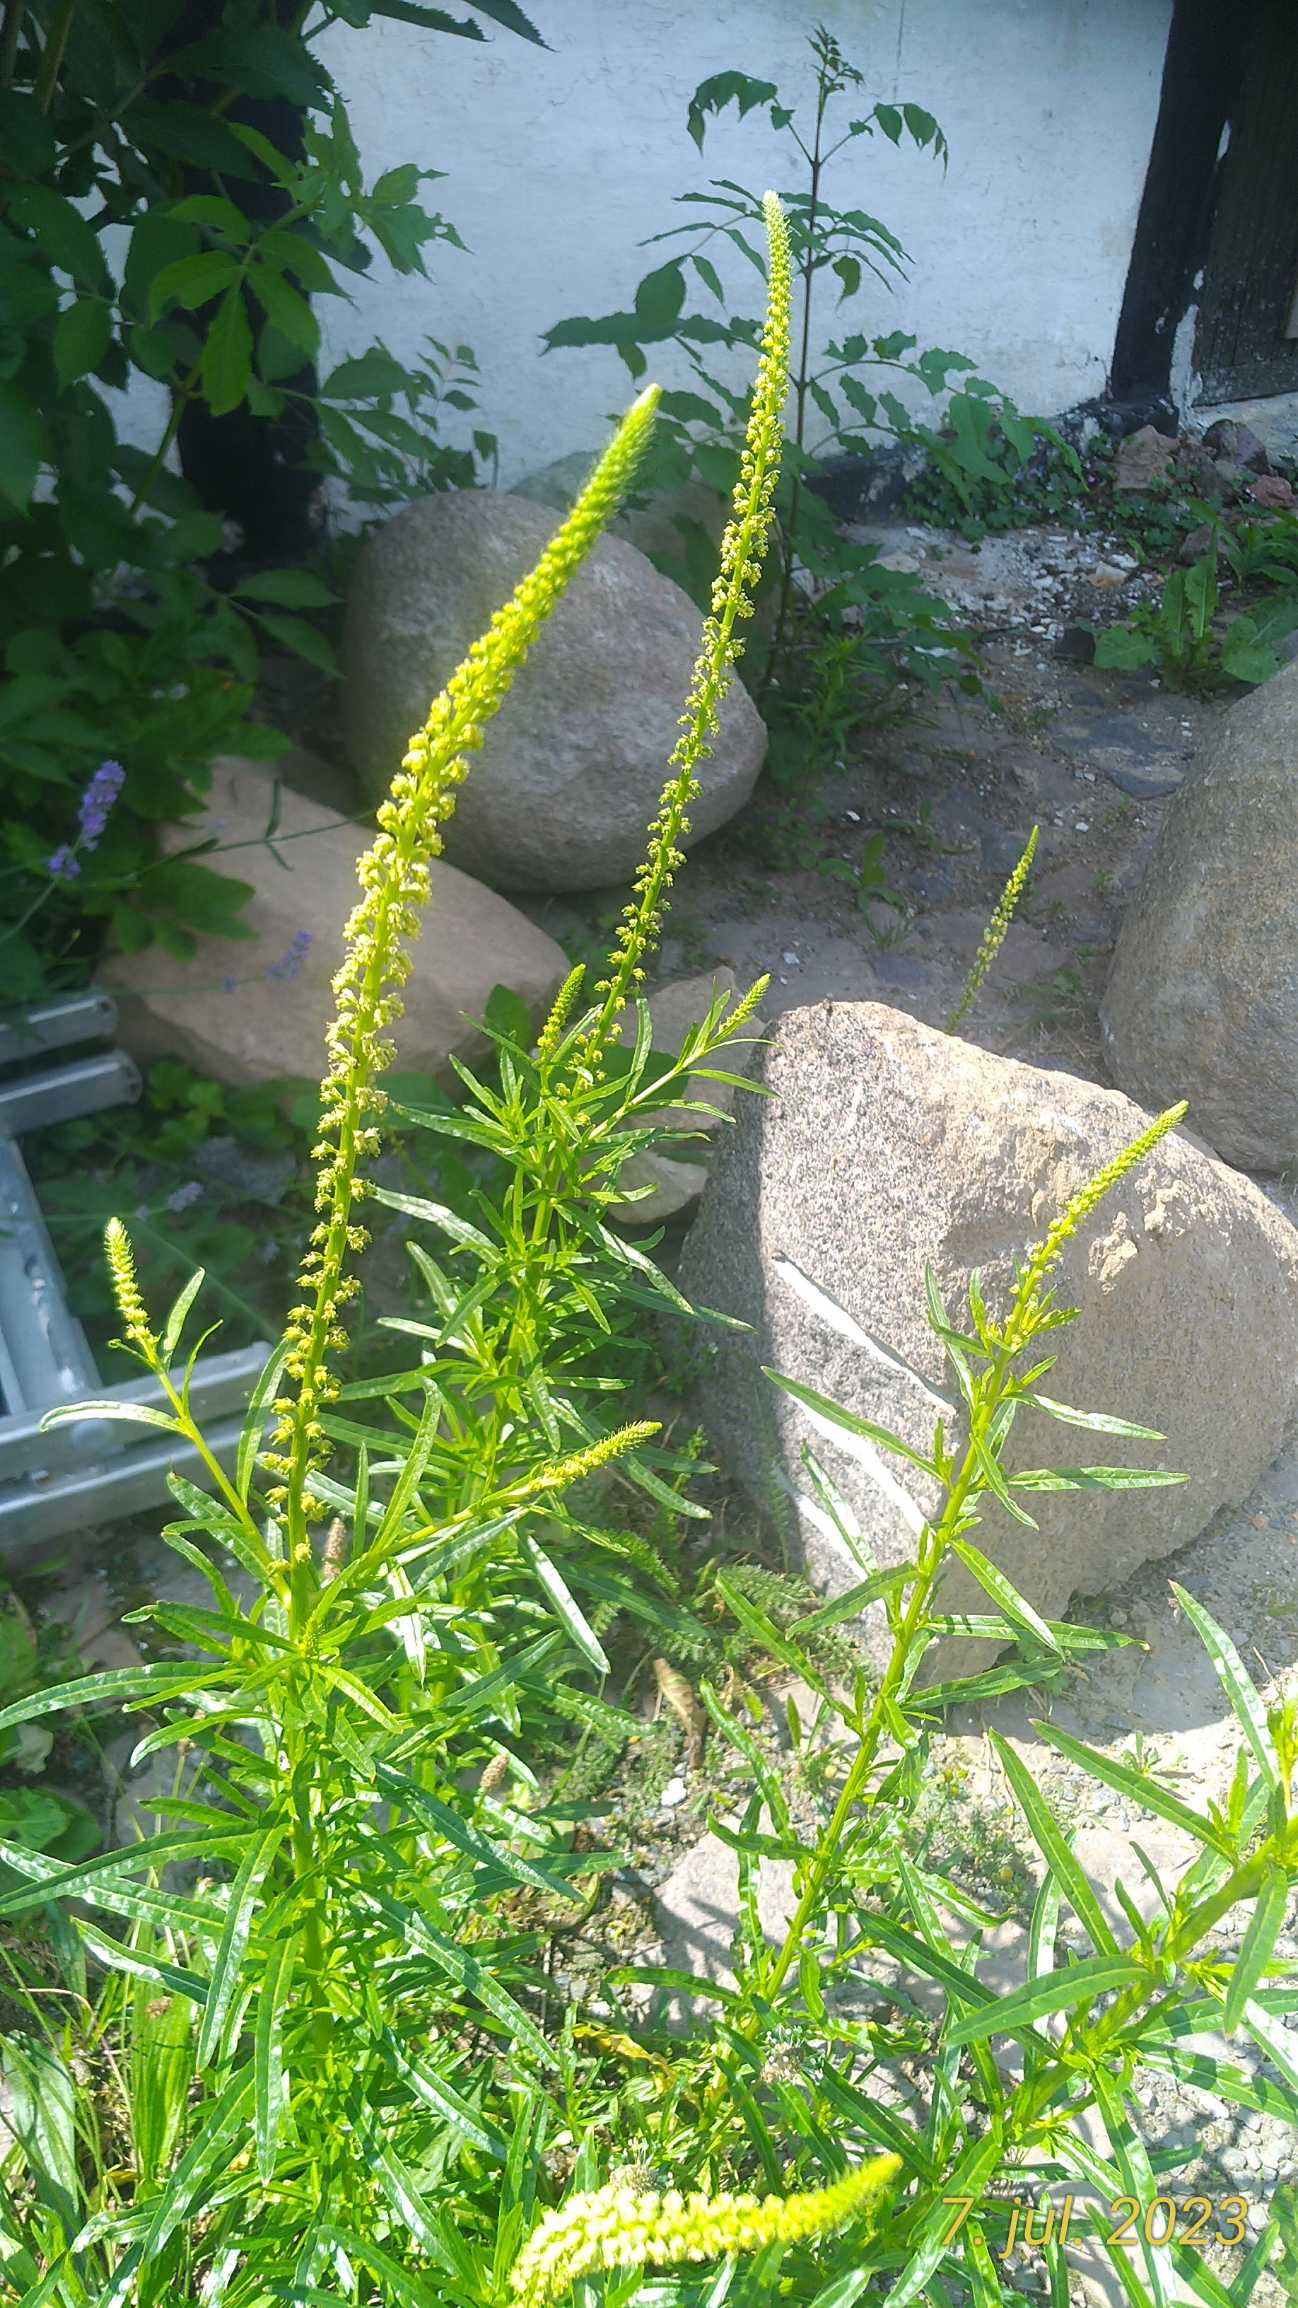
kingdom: Plantae
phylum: Tracheophyta
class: Magnoliopsida
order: Brassicales
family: Resedaceae
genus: Reseda
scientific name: Reseda luteola
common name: Farve-reseda
